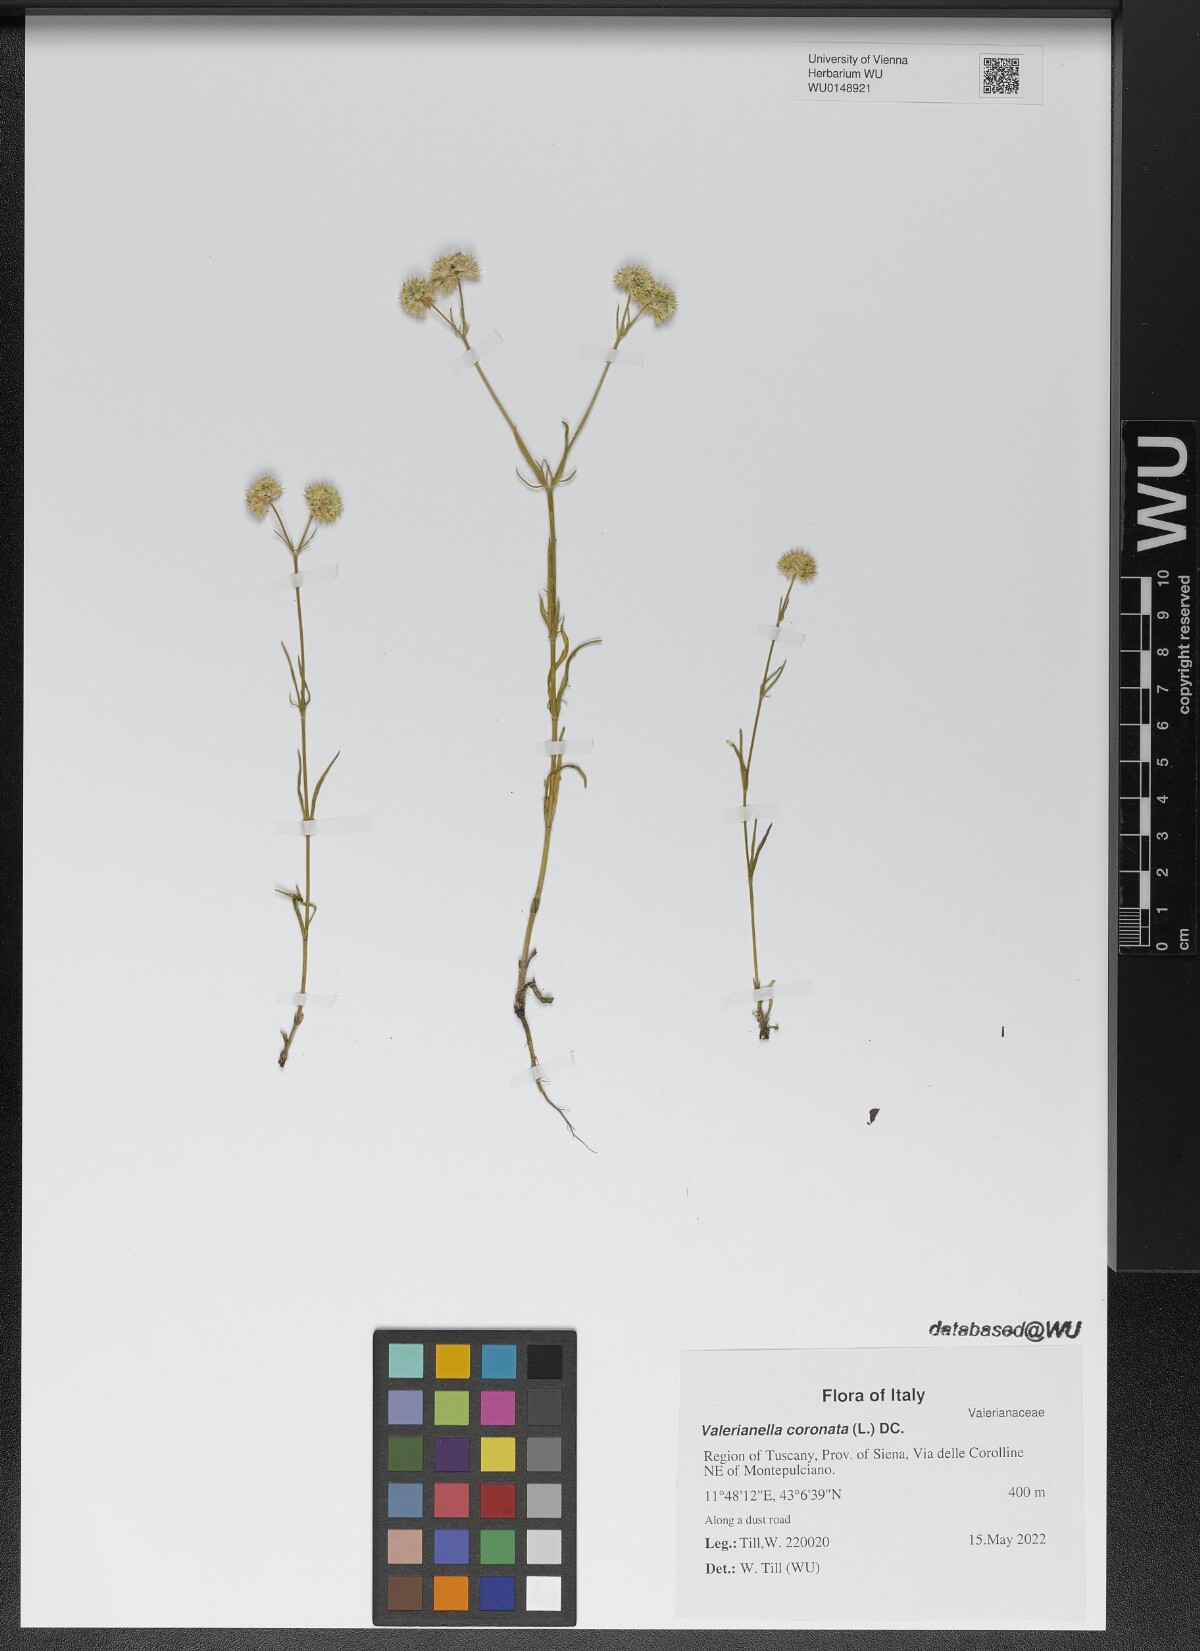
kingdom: Plantae
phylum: Tracheophyta
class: Magnoliopsida
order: Dipsacales
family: Caprifoliaceae
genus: Valerianella
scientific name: Valerianella coronata
